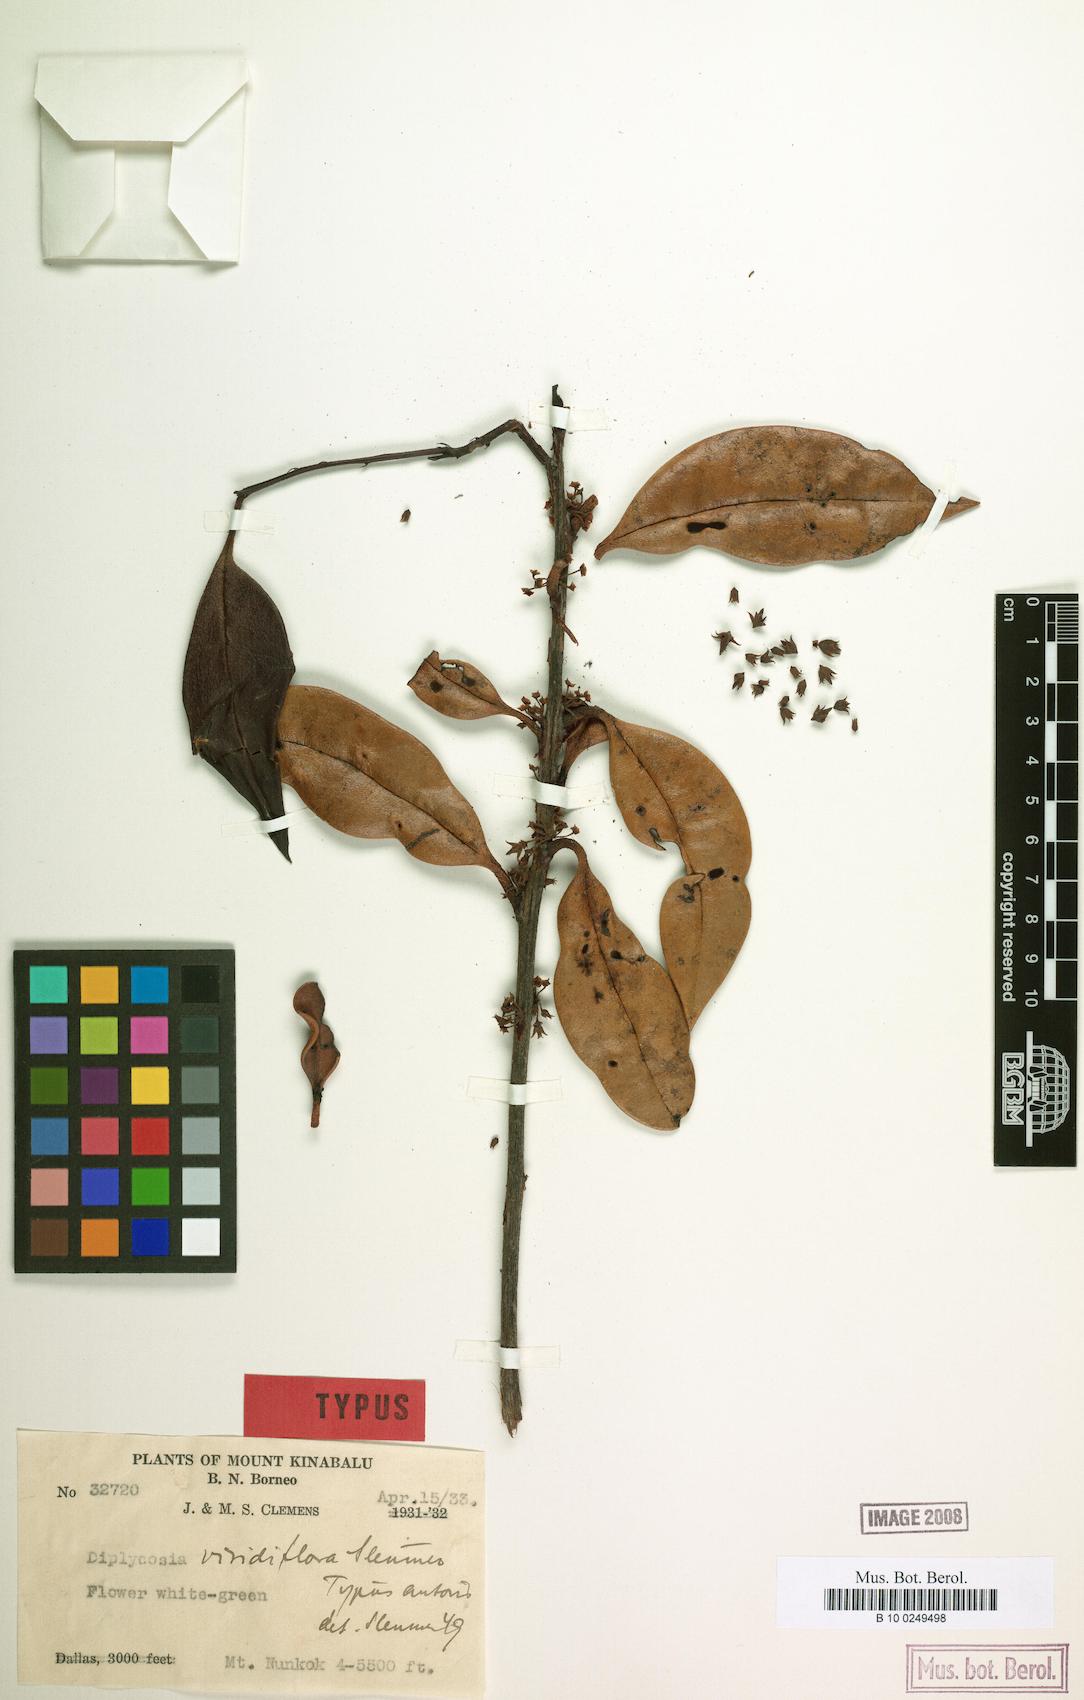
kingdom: Plantae
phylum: Tracheophyta
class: Magnoliopsida
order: Ericales
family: Ericaceae
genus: Gaultheria
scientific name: Gaultheria sulcinervia
